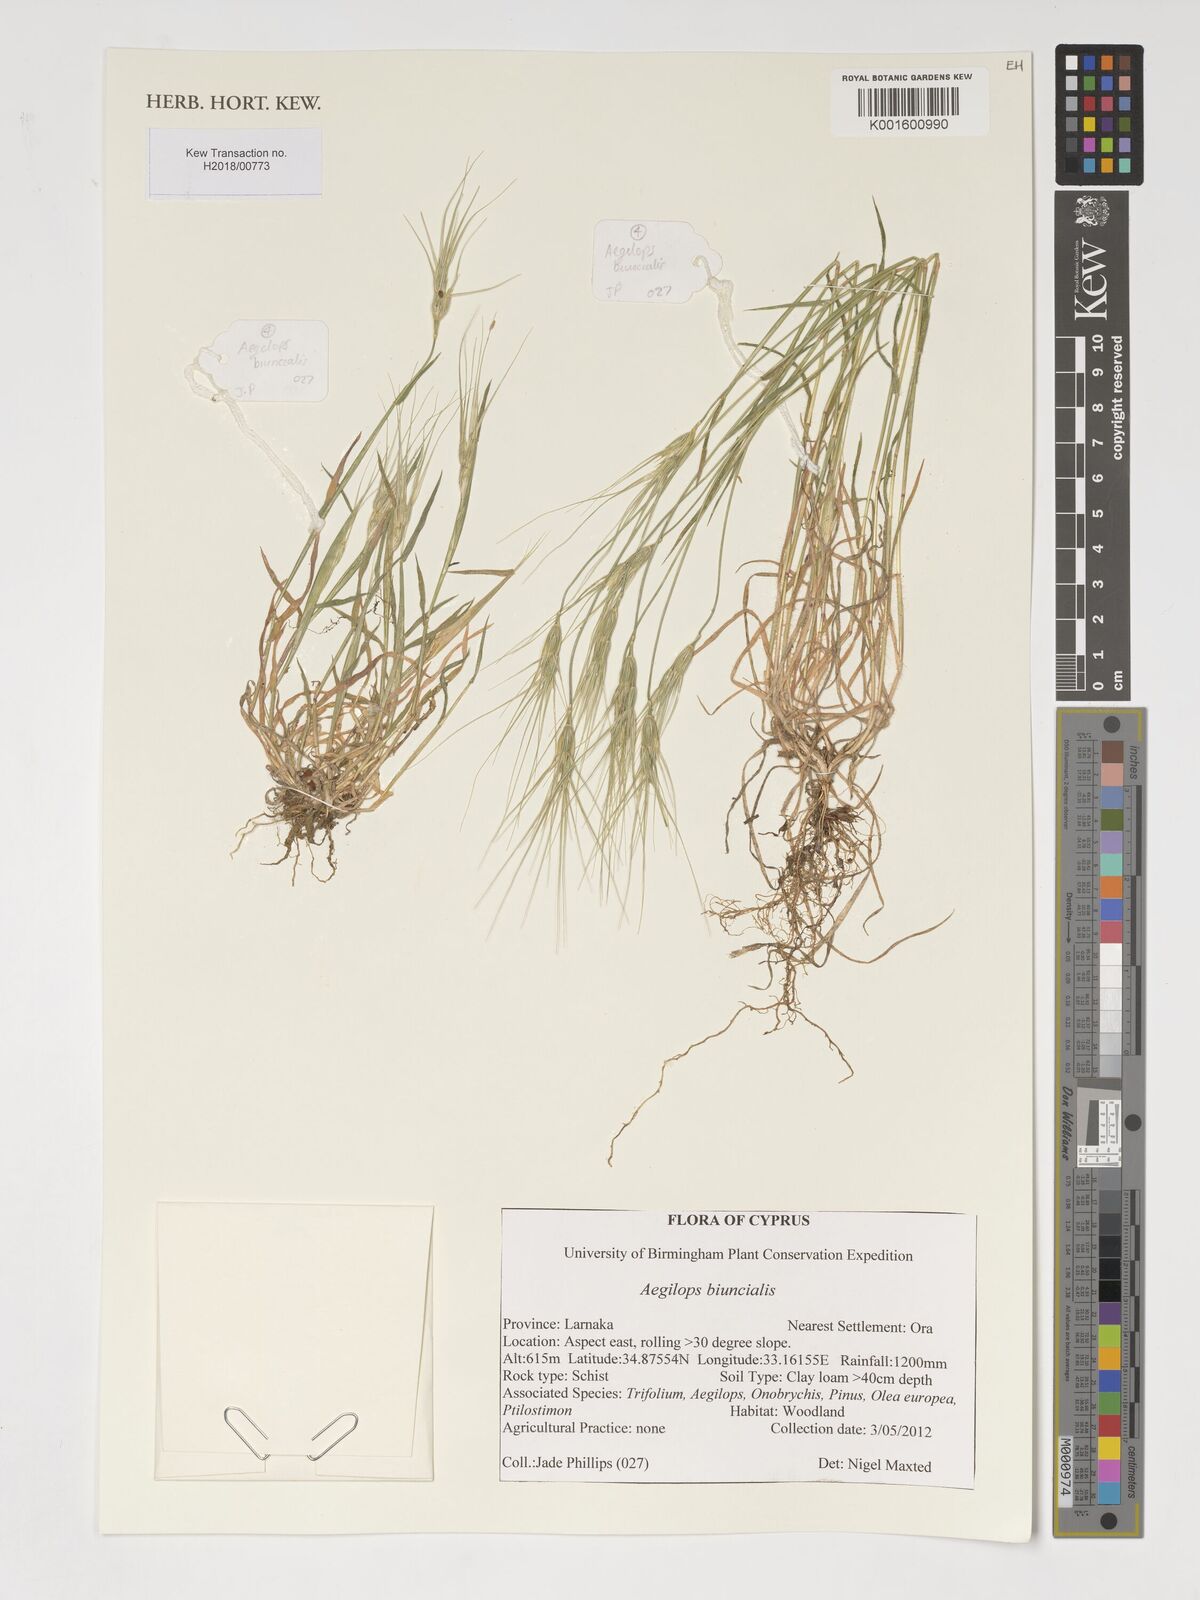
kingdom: Plantae
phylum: Tracheophyta
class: Liliopsida
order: Poales
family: Poaceae
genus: Aegilops
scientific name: Aegilops biuncialis
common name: Mediterranean aegilops
